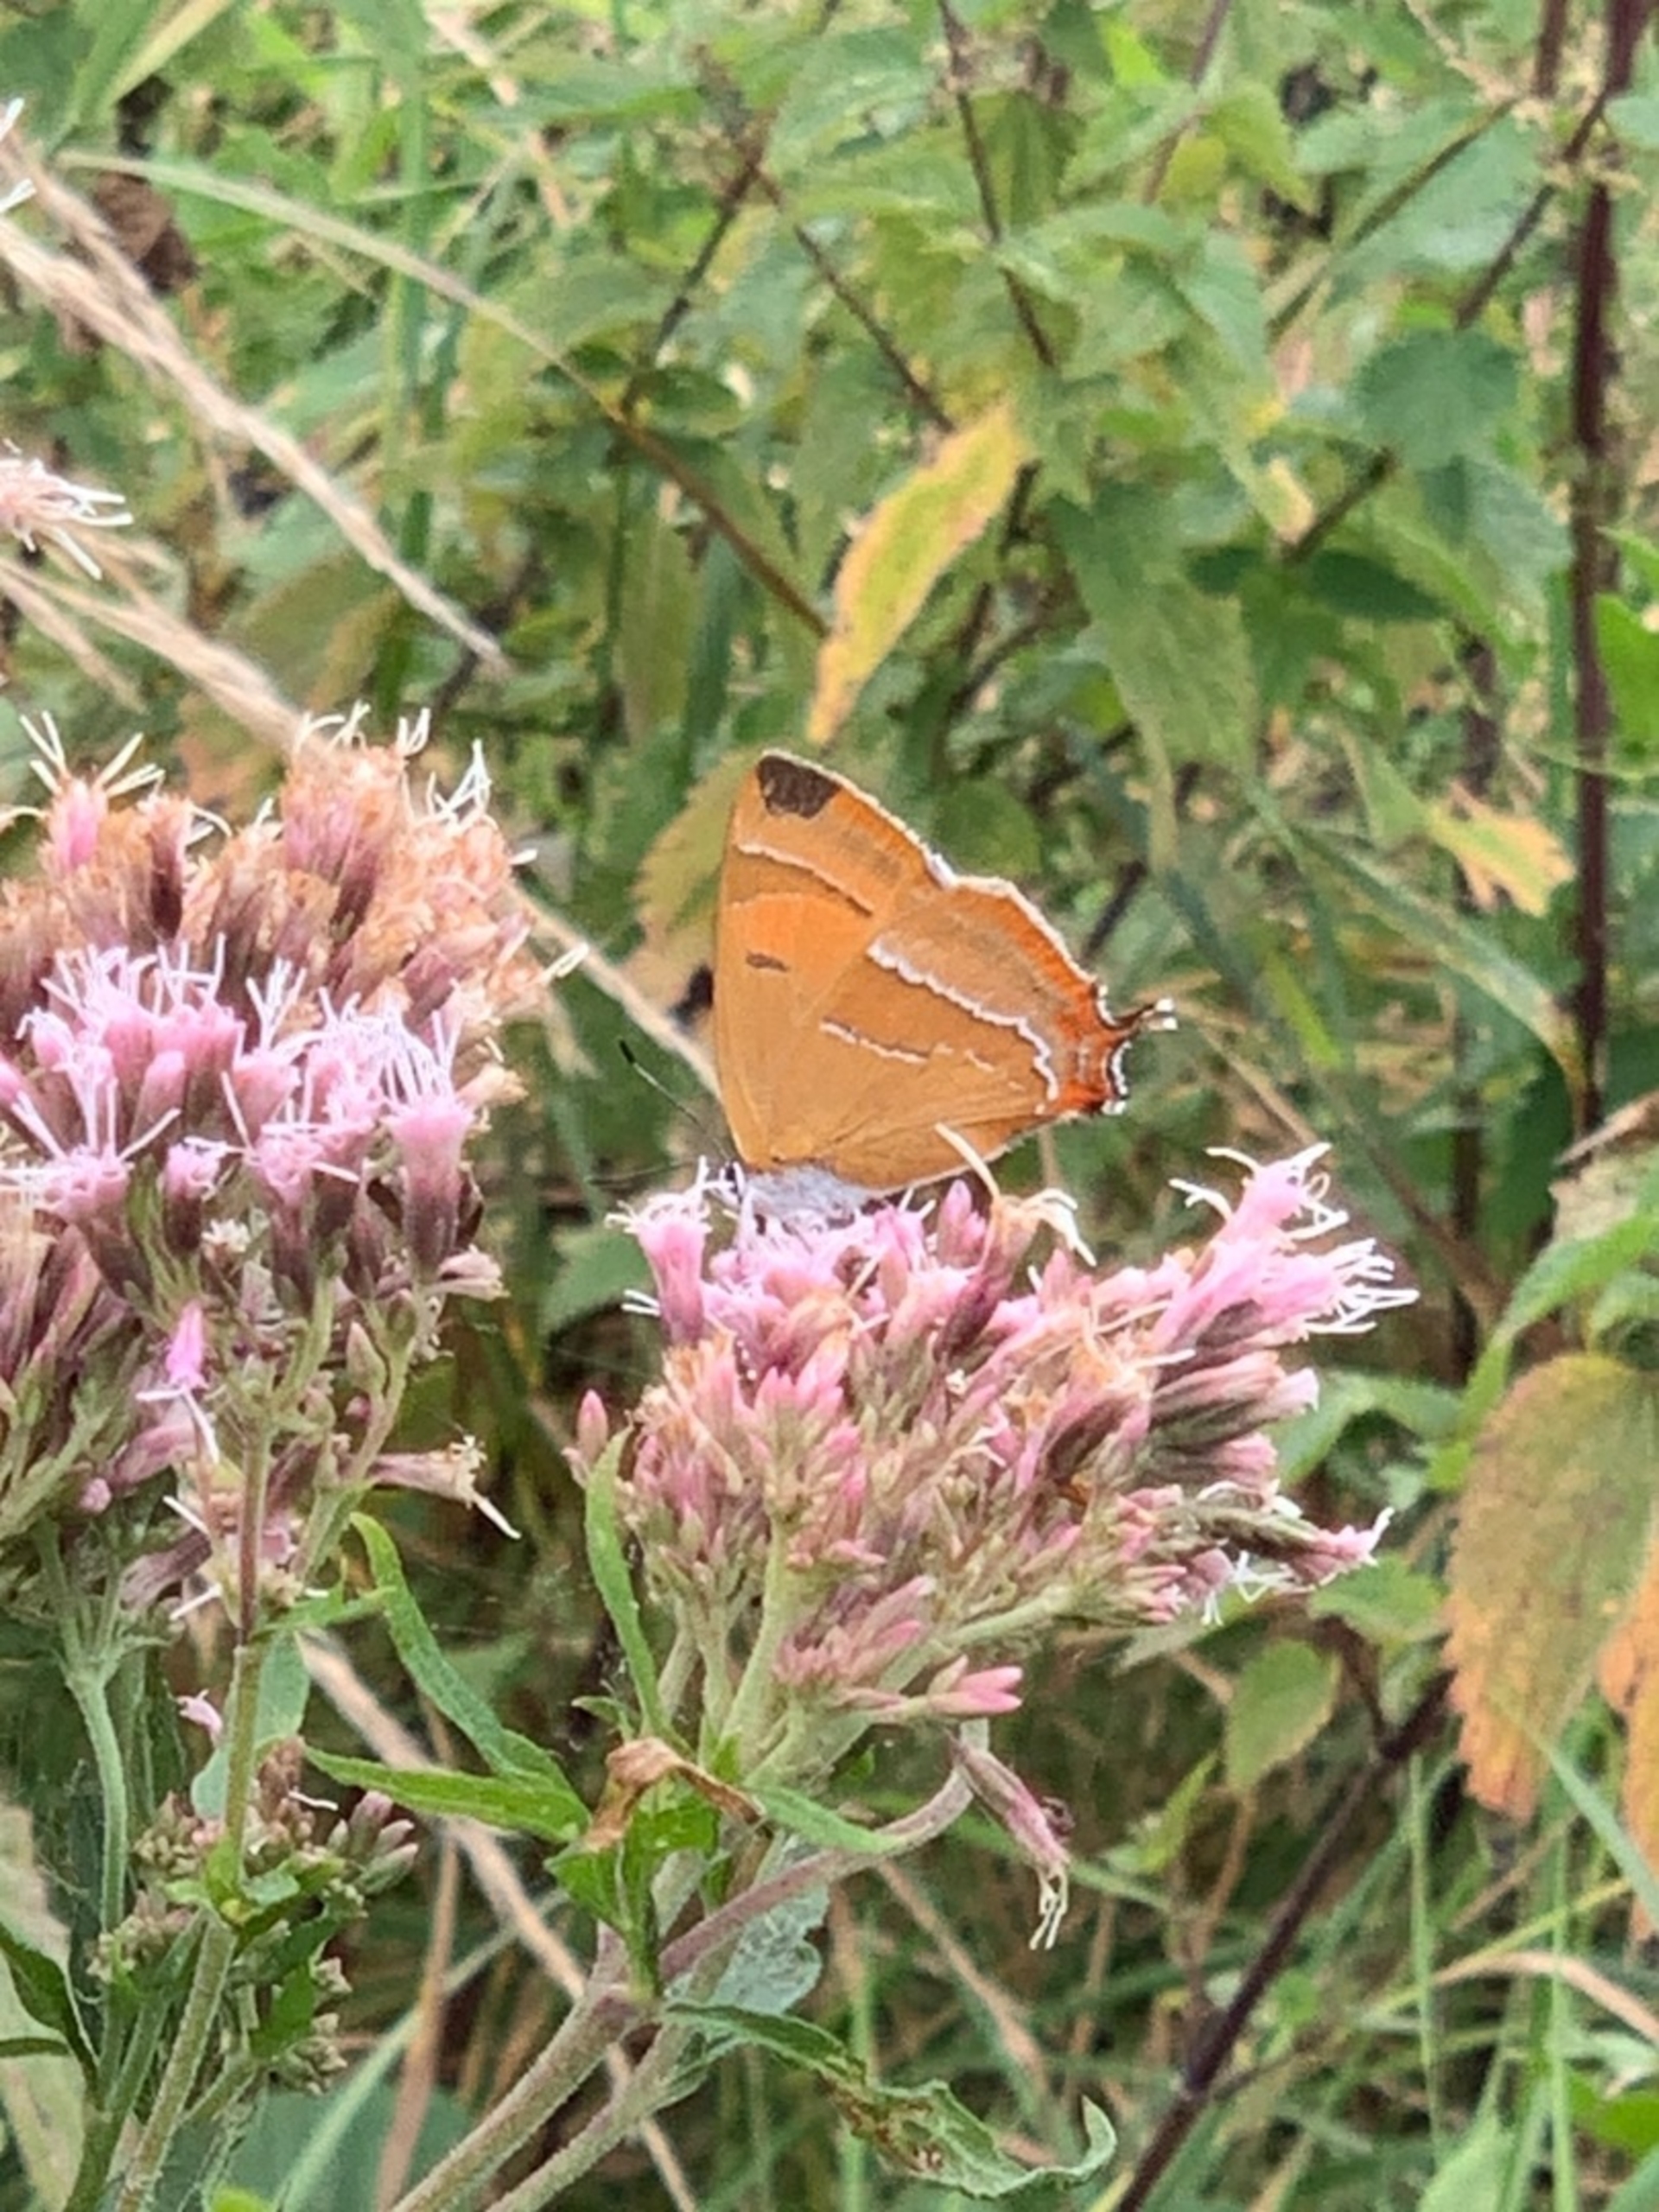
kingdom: Animalia
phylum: Arthropoda
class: Insecta
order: Lepidoptera
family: Lycaenidae
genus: Thecla
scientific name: Thecla betulae
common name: Guldhale
